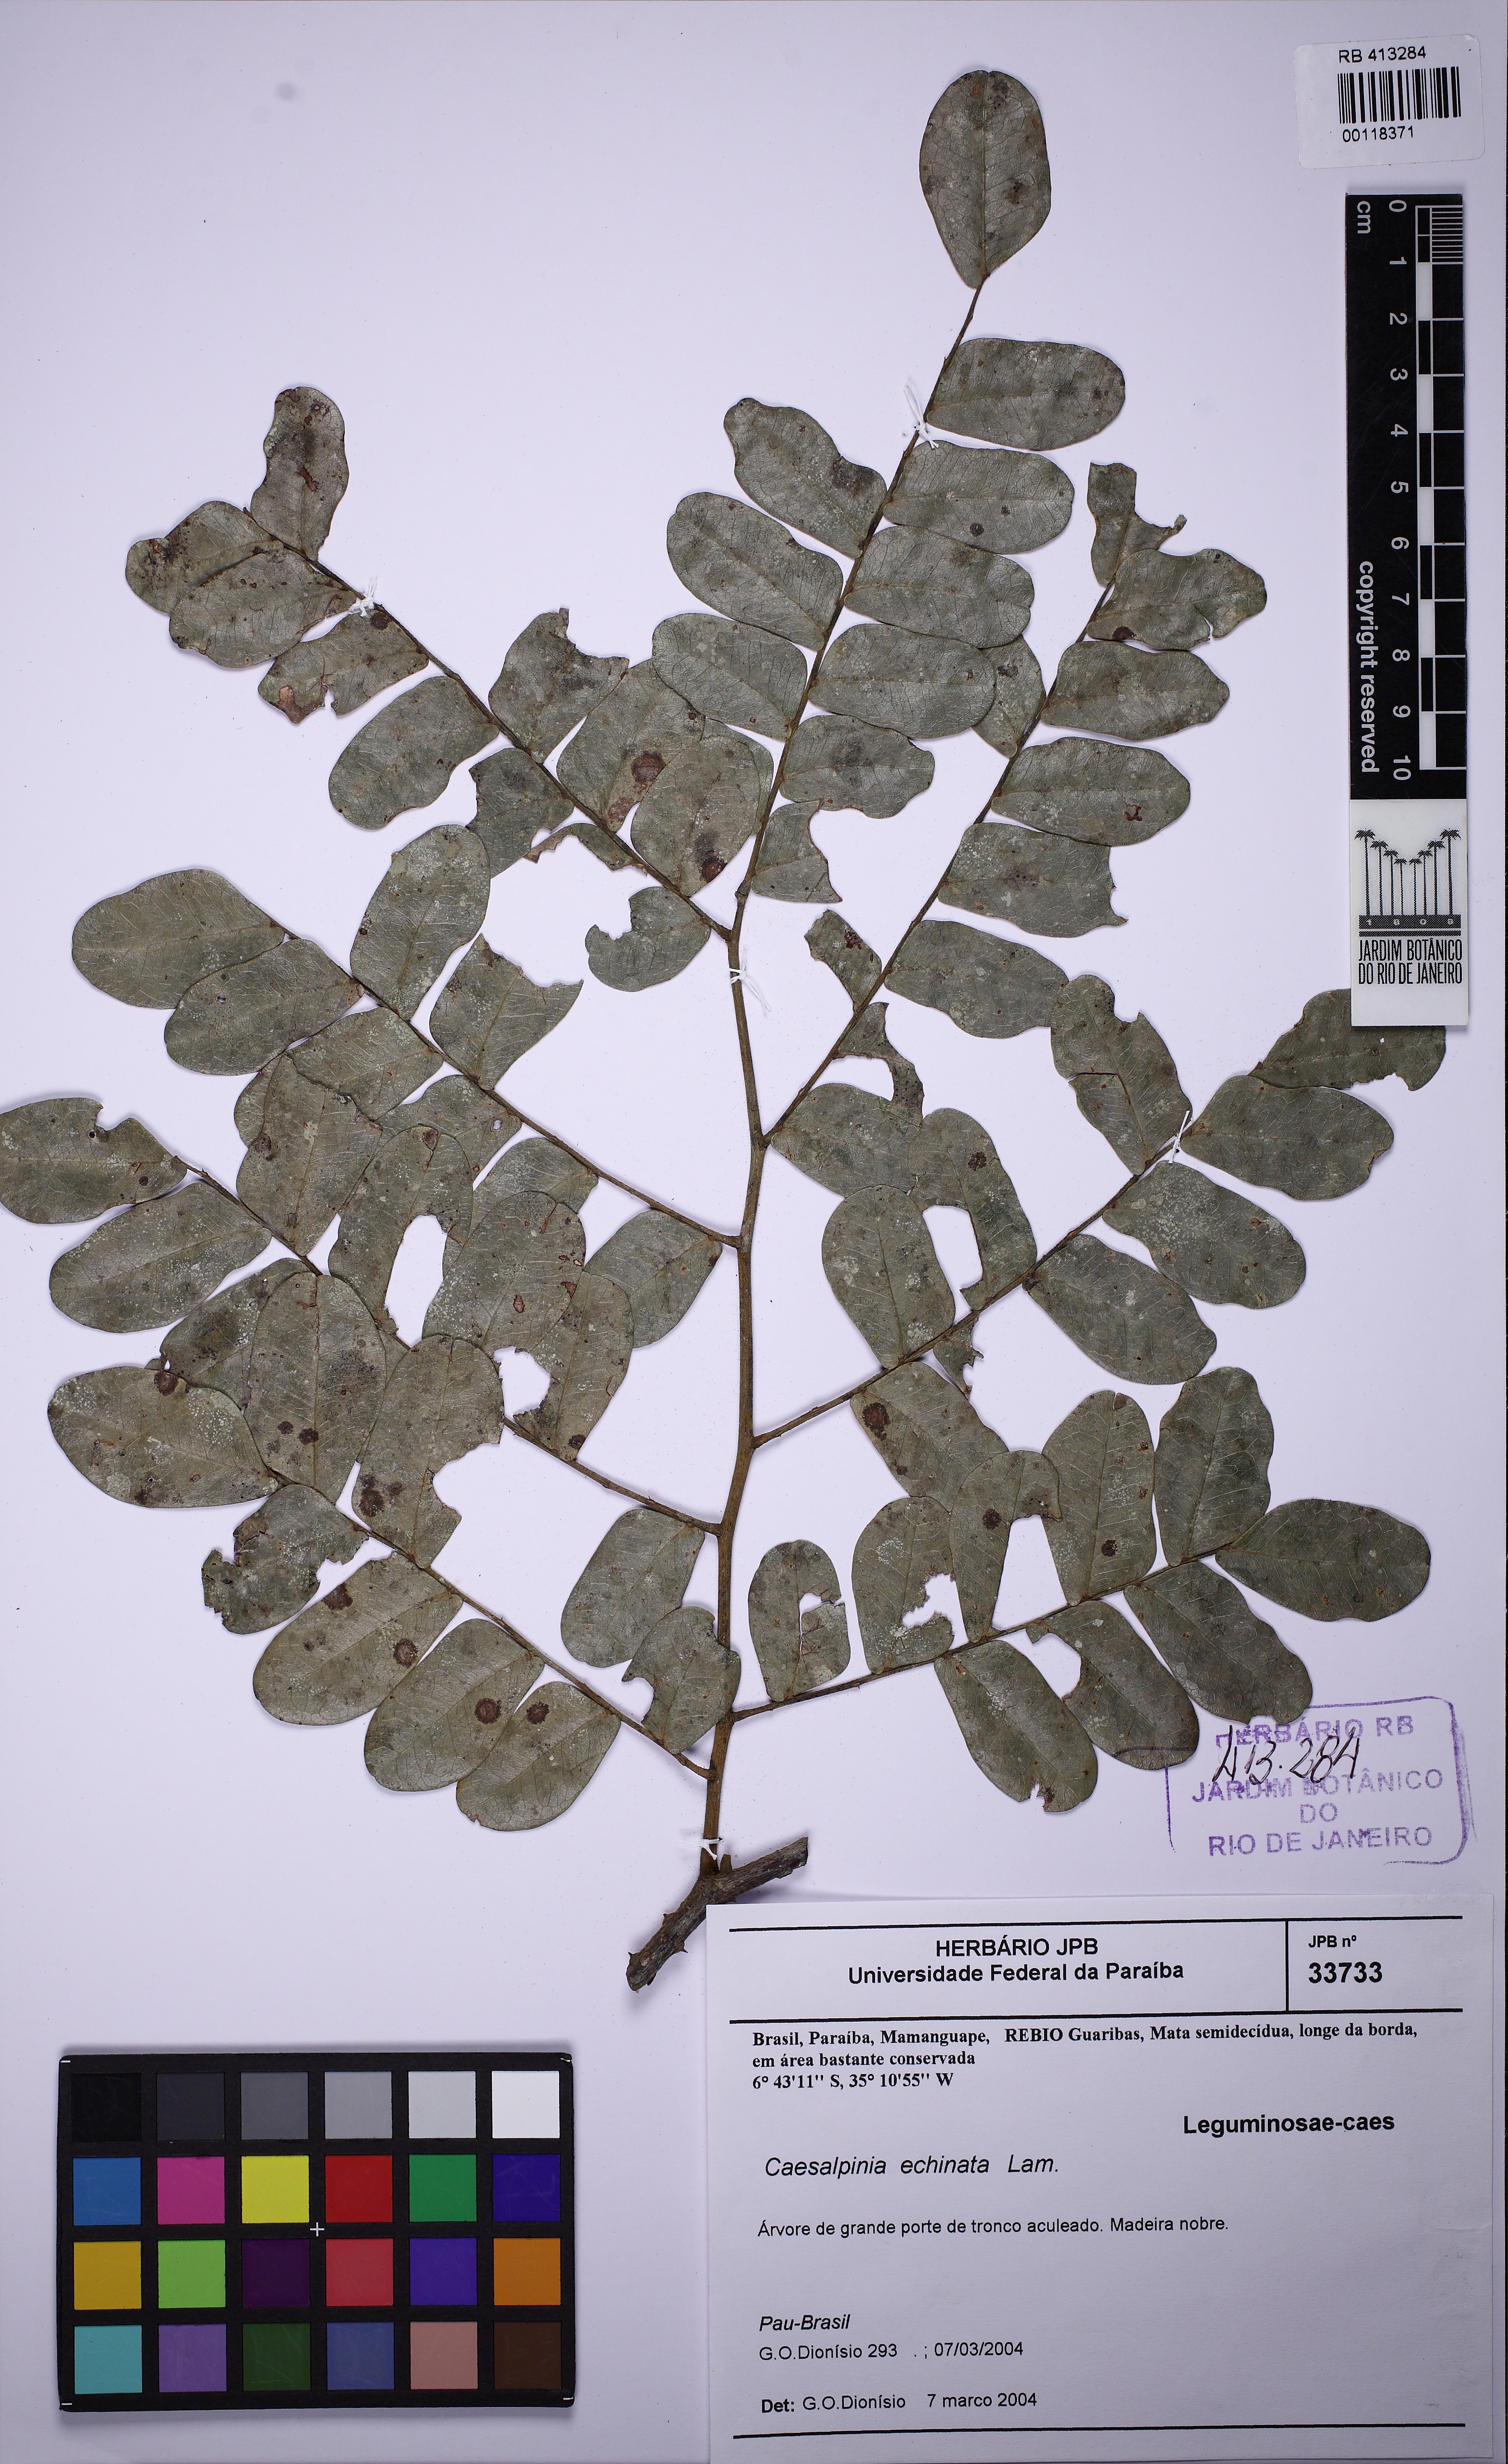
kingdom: Plantae
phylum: Tracheophyta
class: Magnoliopsida
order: Fabales
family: Fabaceae
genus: Paubrasilia
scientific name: Paubrasilia echinata
